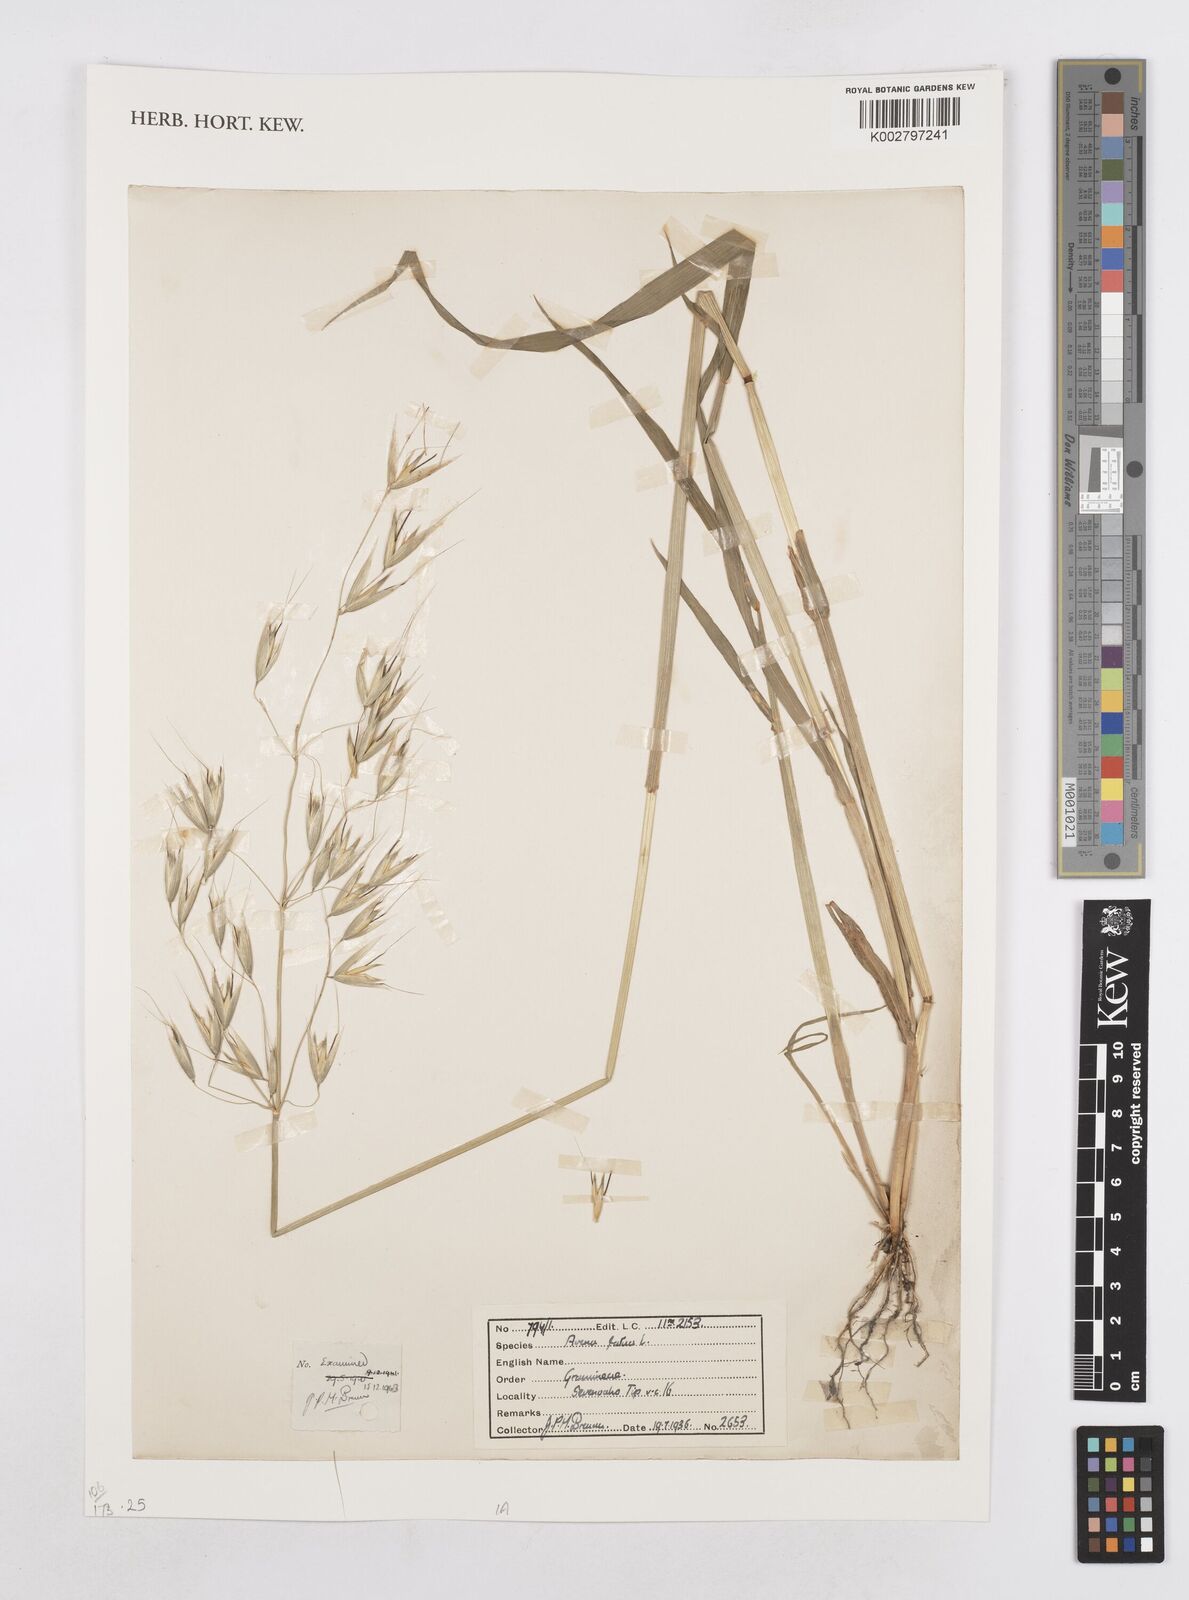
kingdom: Plantae
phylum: Tracheophyta
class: Liliopsida
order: Poales
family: Poaceae
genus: Avena
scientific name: Avena fatua
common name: Wild oat
